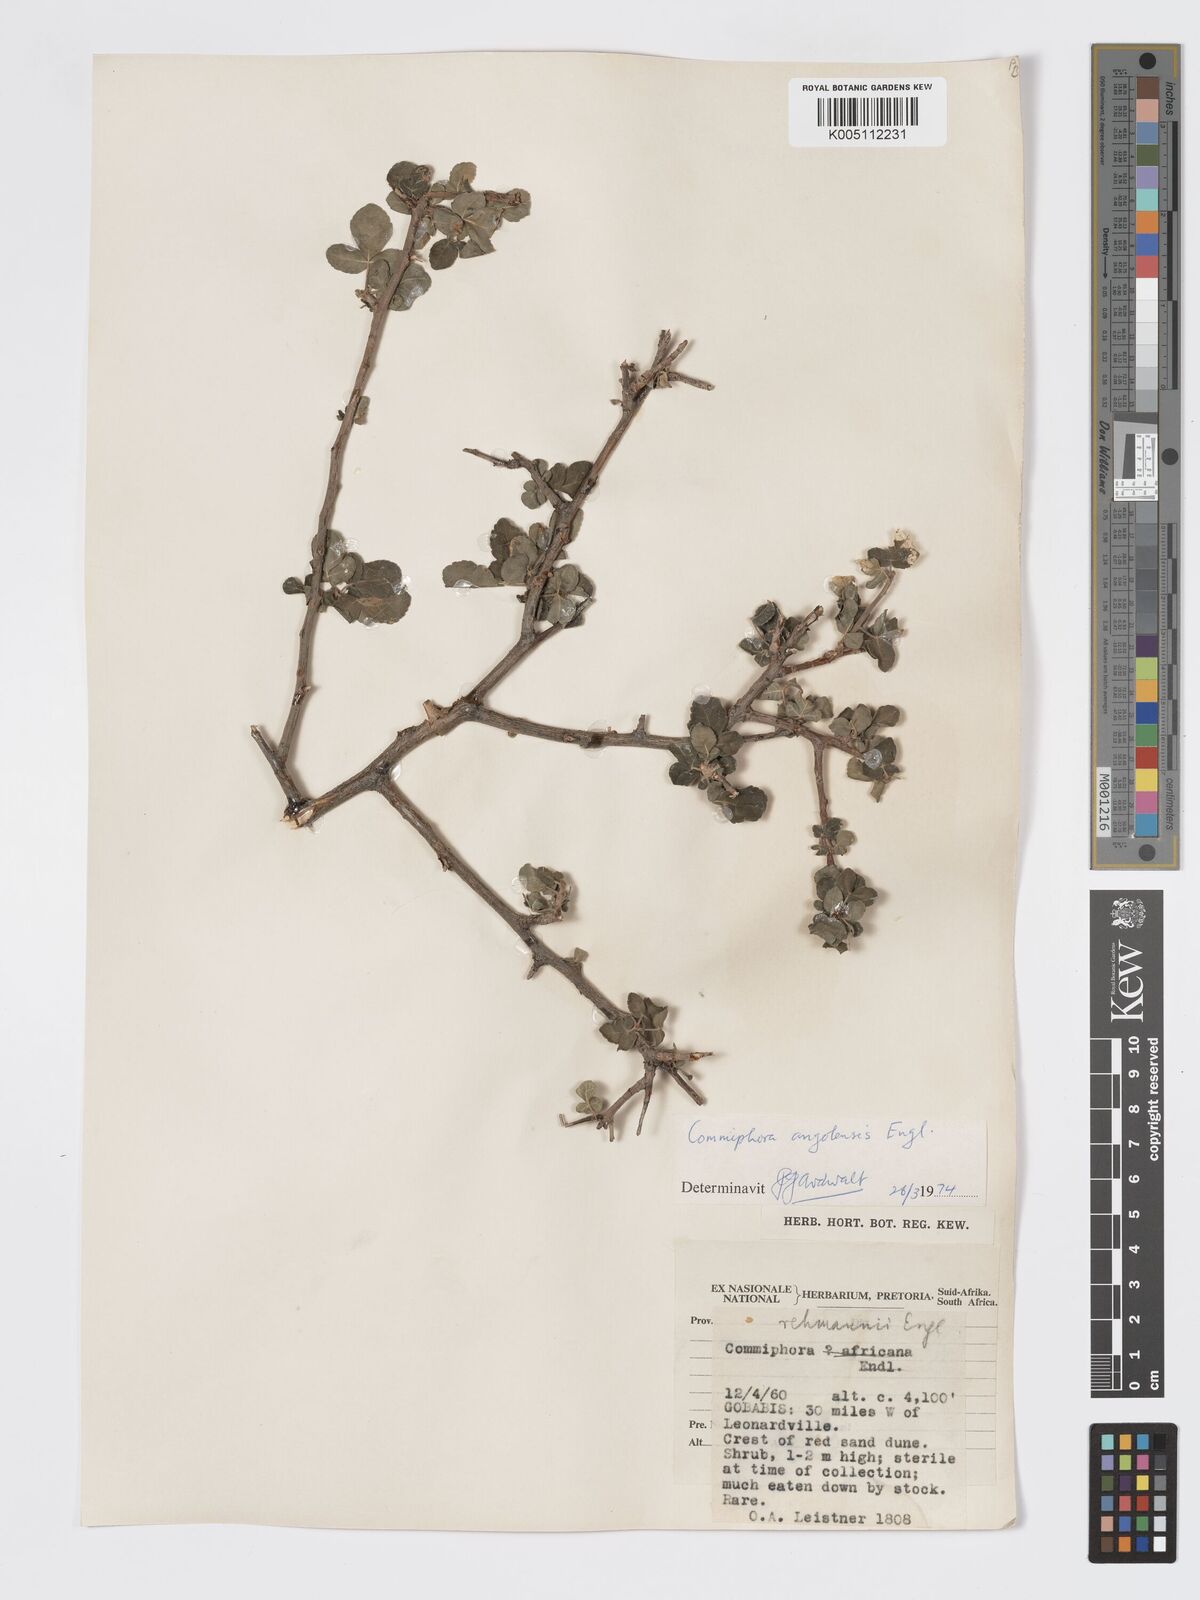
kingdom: Plantae
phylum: Tracheophyta
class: Magnoliopsida
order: Sapindales
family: Burseraceae
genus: Commiphora
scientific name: Commiphora angolensis
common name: Poison-grub
